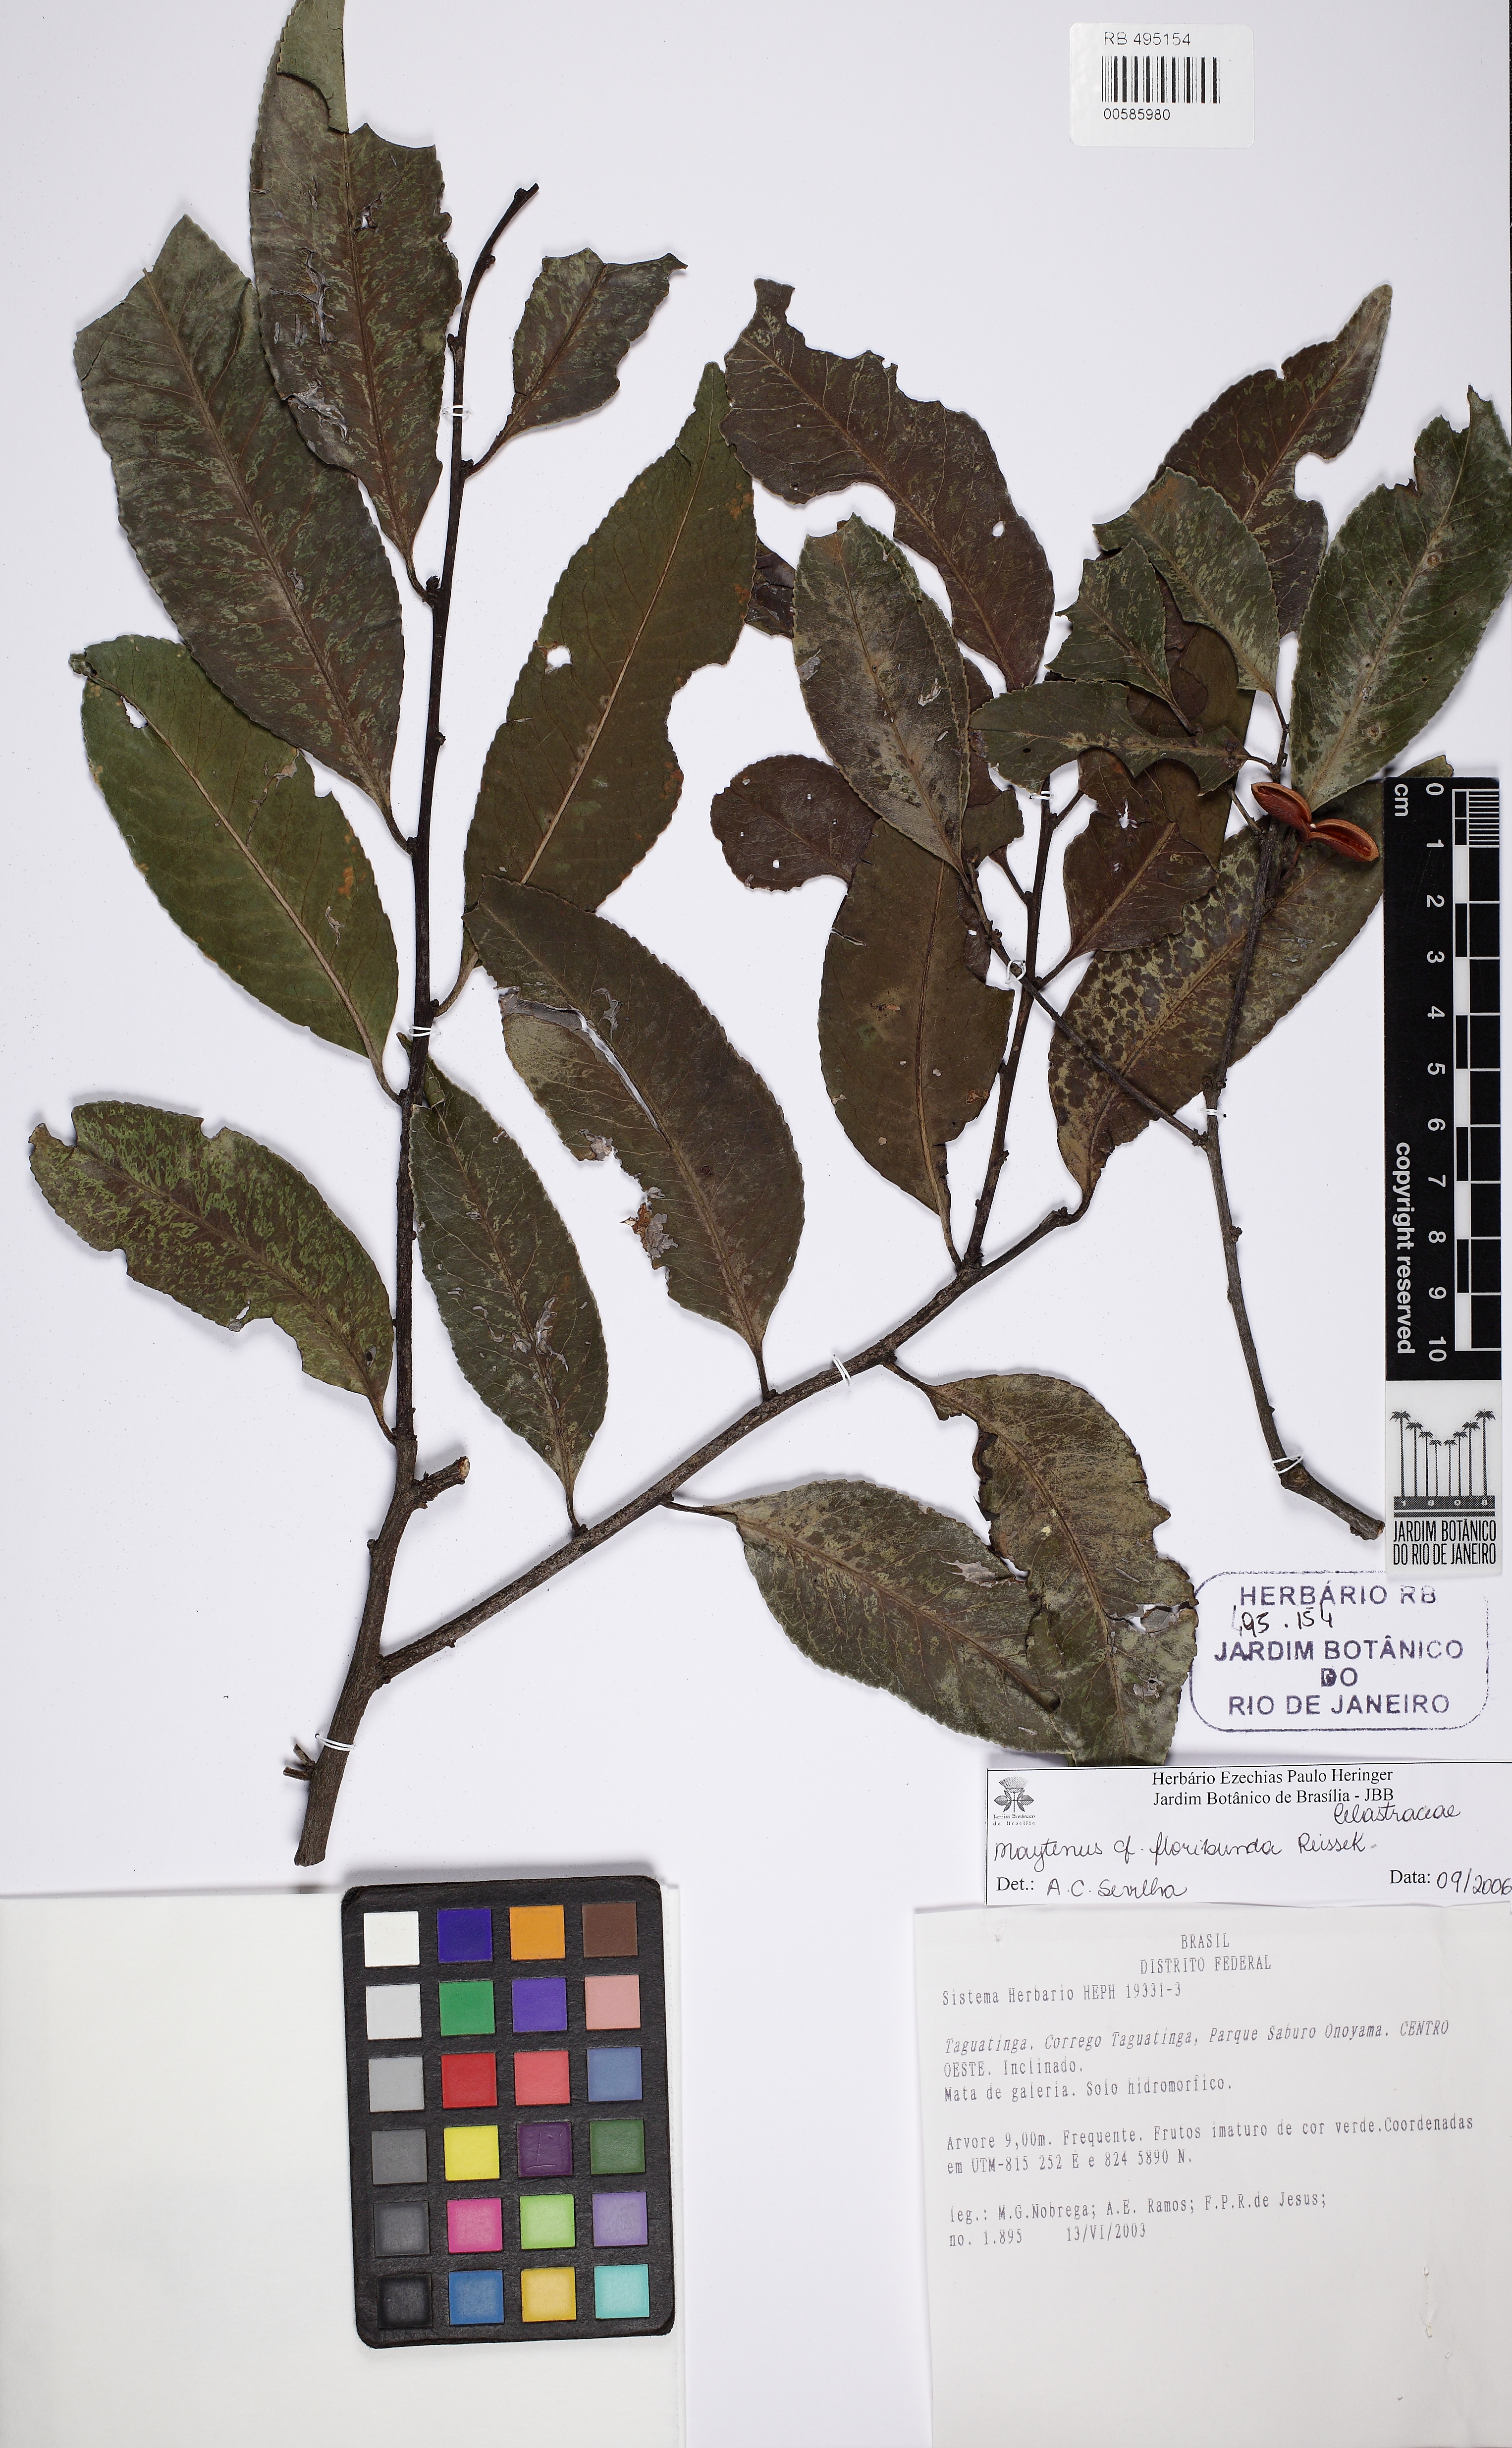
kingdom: Plantae
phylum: Tracheophyta
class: Magnoliopsida
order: Celastrales
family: Celastraceae
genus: Monteverdia
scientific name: Monteverdia gonoclada
